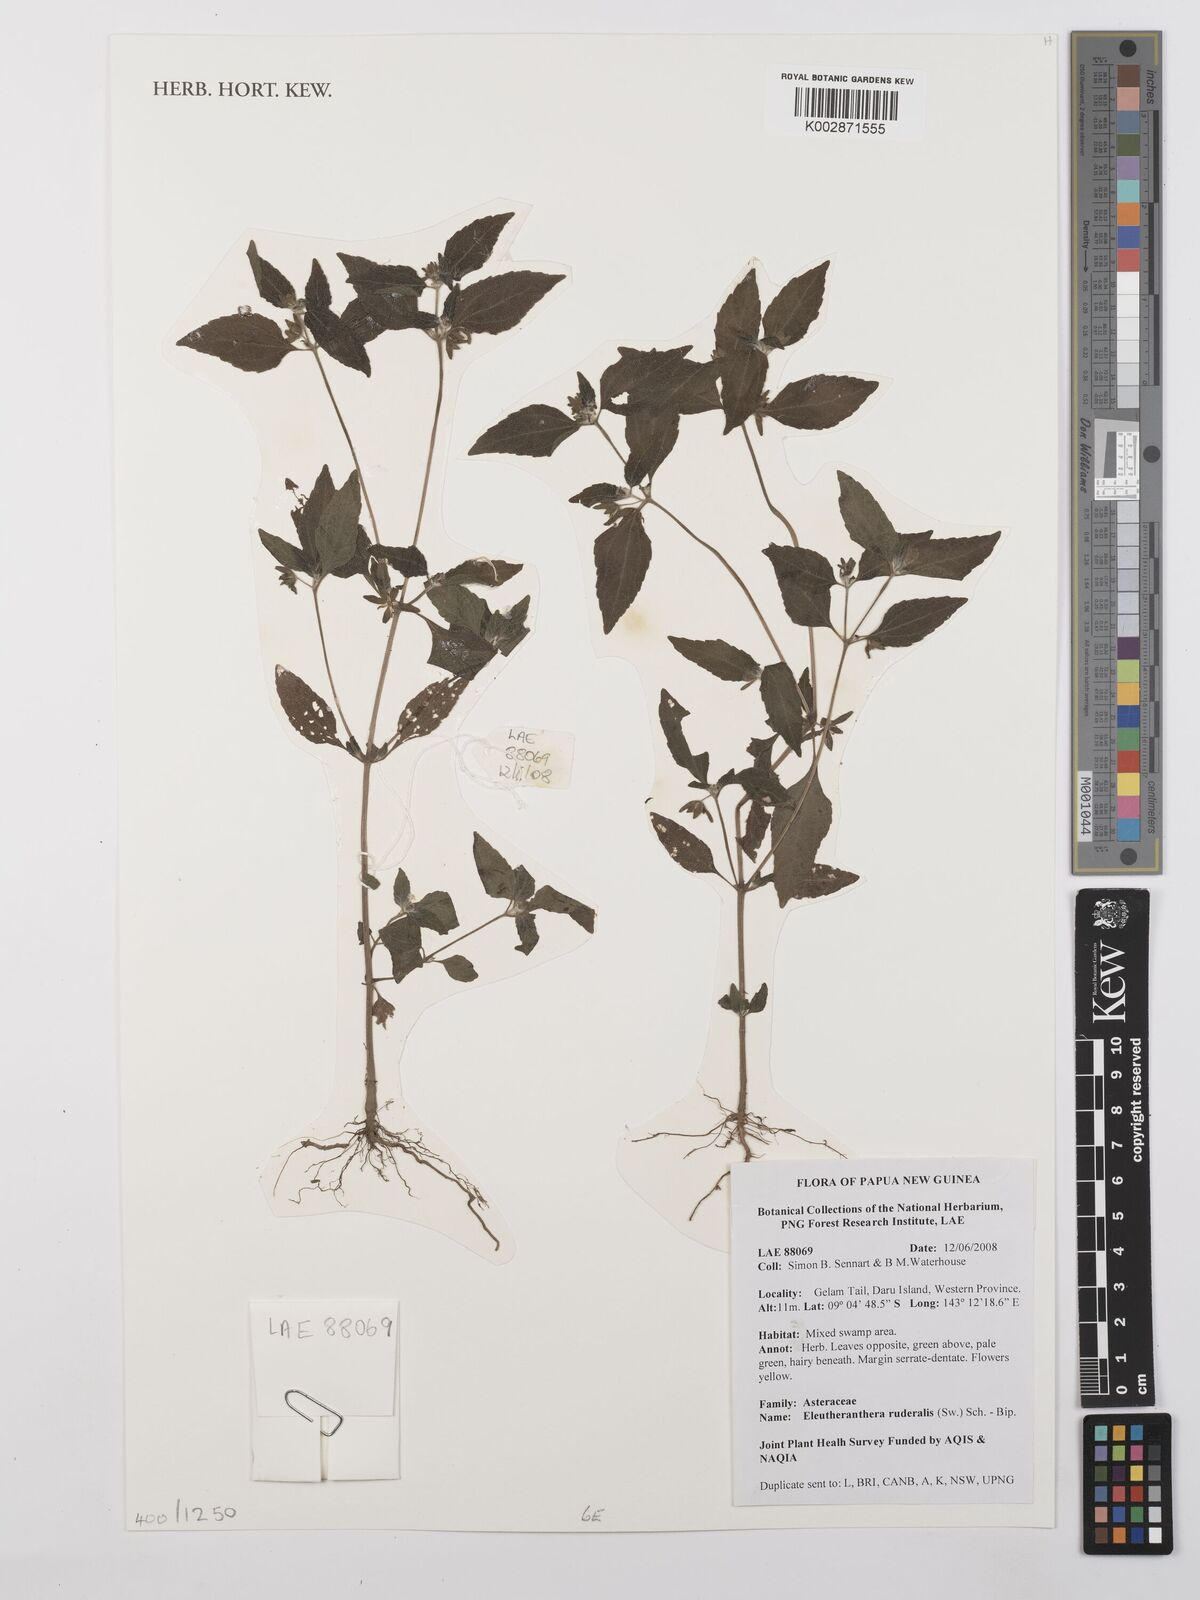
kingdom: Plantae
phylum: Tracheophyta
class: Magnoliopsida
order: Asterales
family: Asteraceae
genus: Eleutheranthera
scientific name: Eleutheranthera ruderalis
